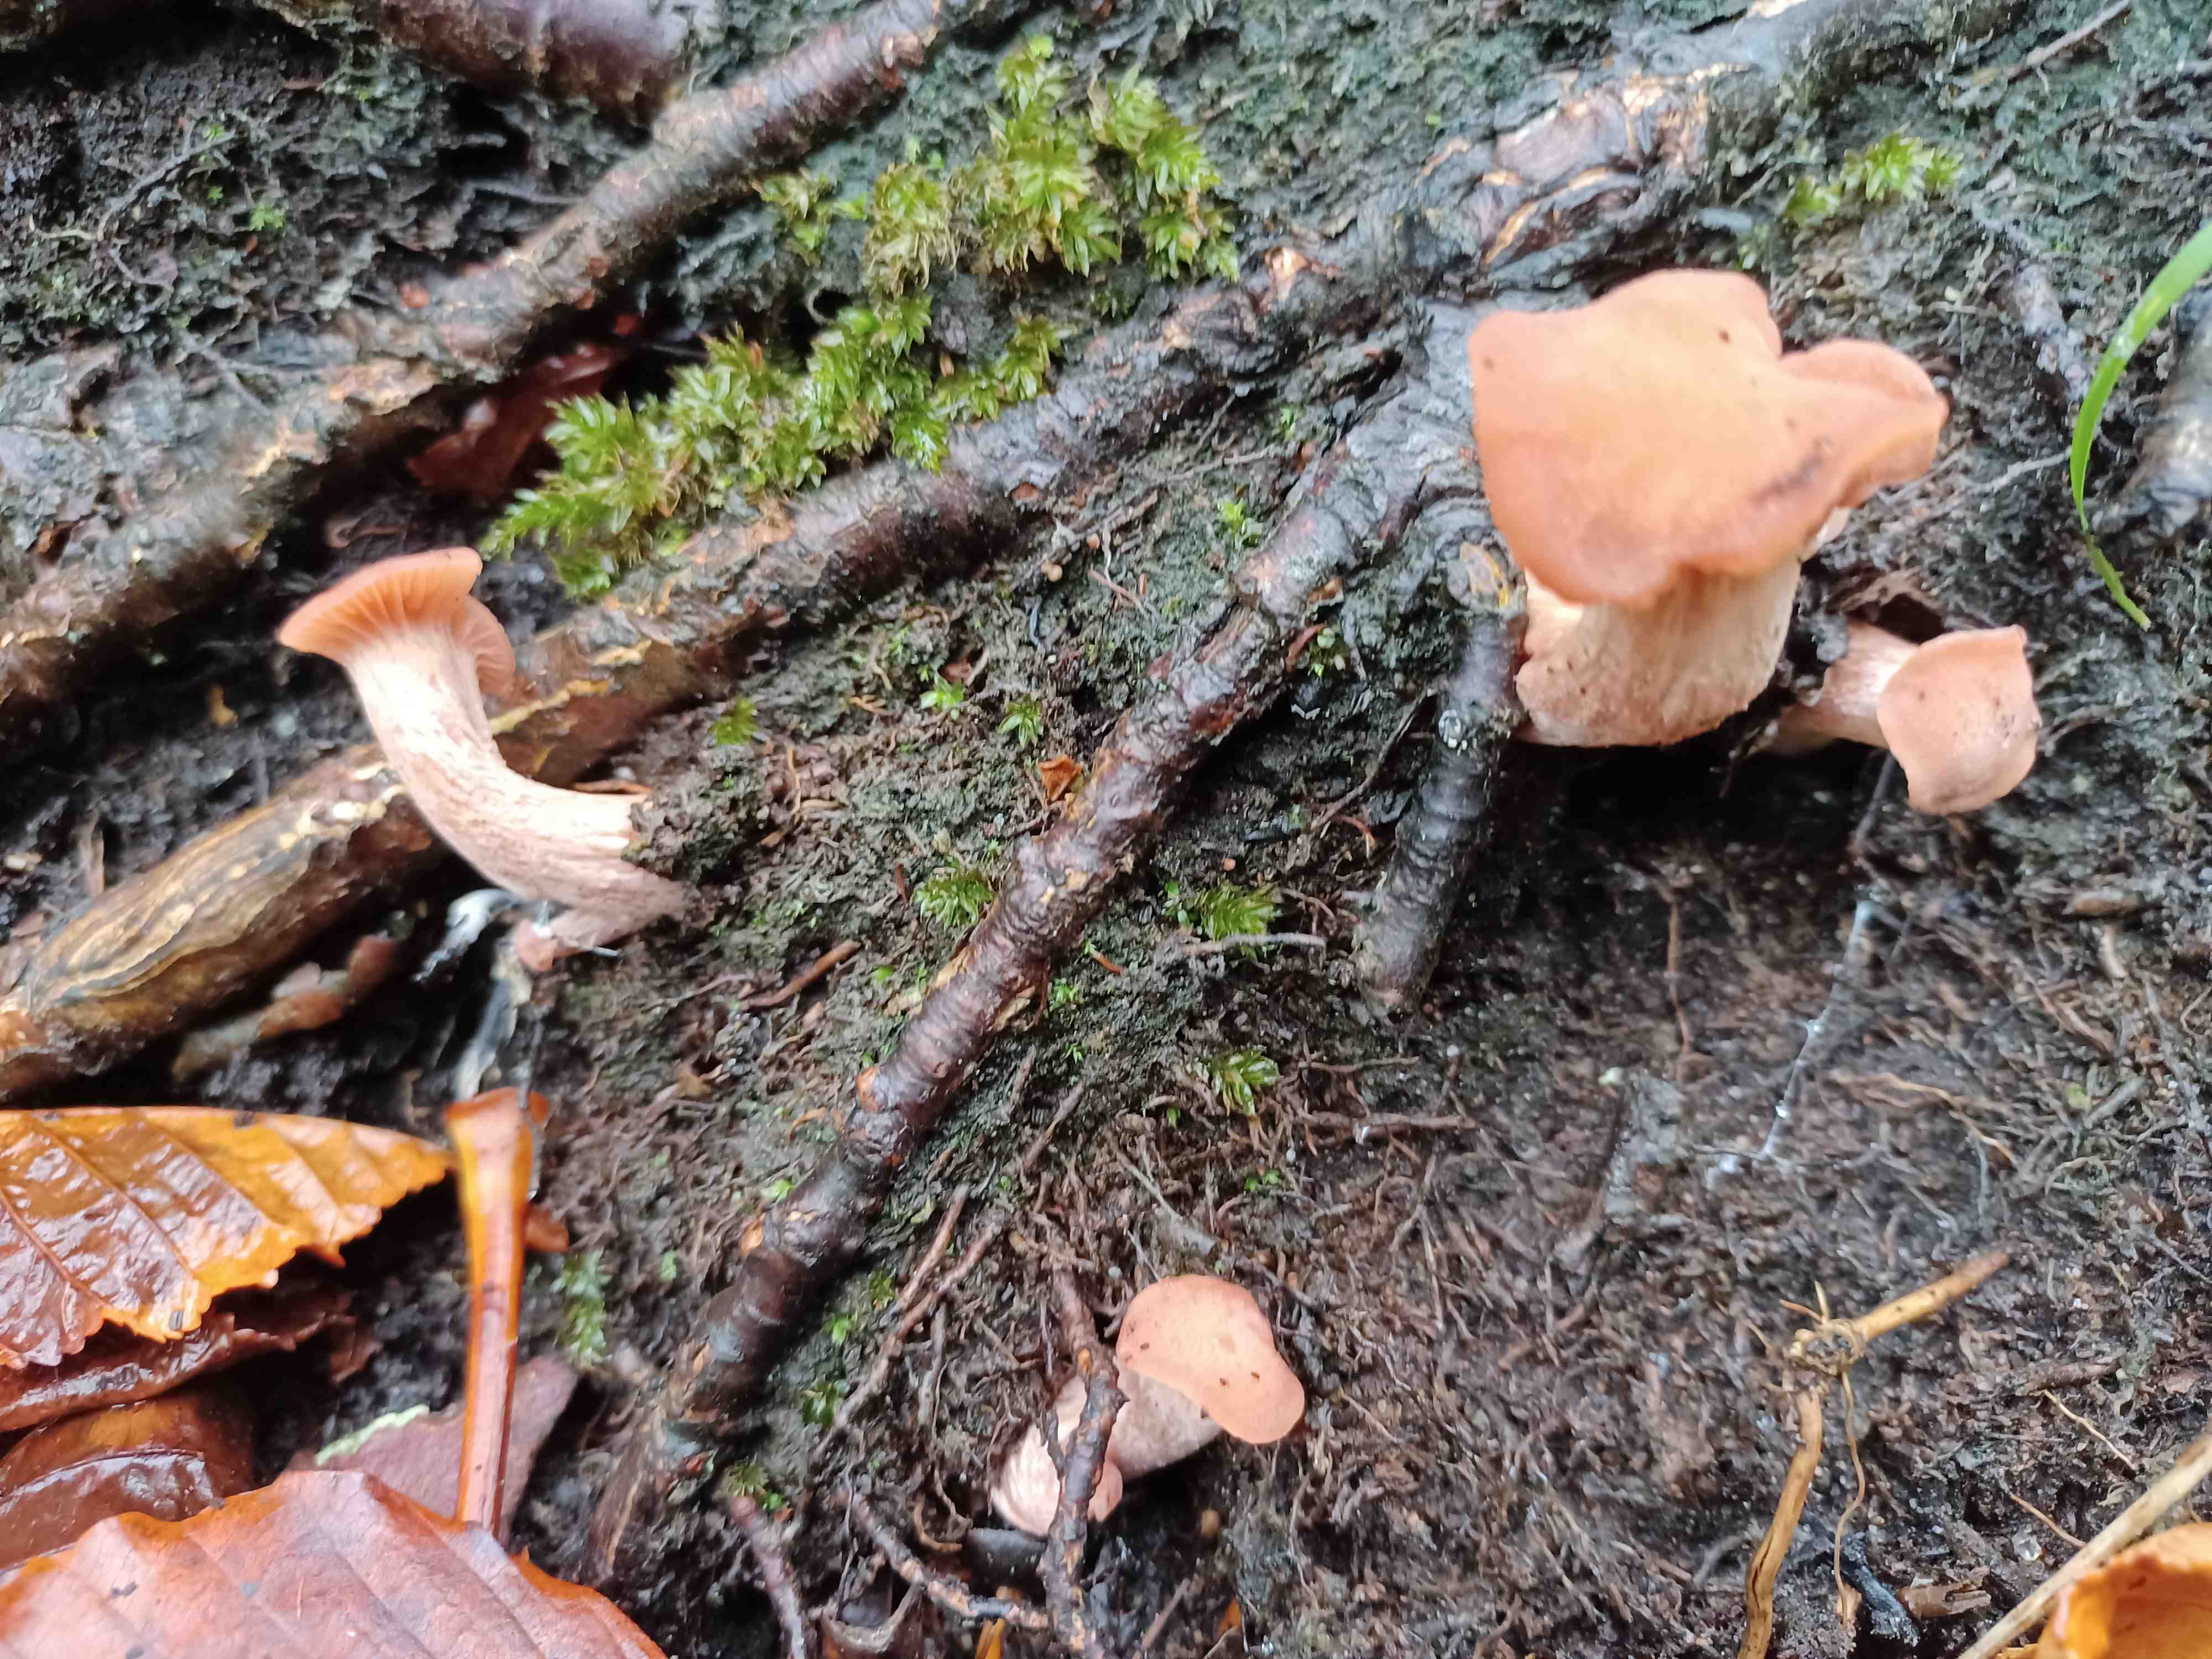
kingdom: Fungi
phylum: Basidiomycota
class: Agaricomycetes
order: Agaricales
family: Hydnangiaceae
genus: Laccaria
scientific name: Laccaria
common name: ametysthat
